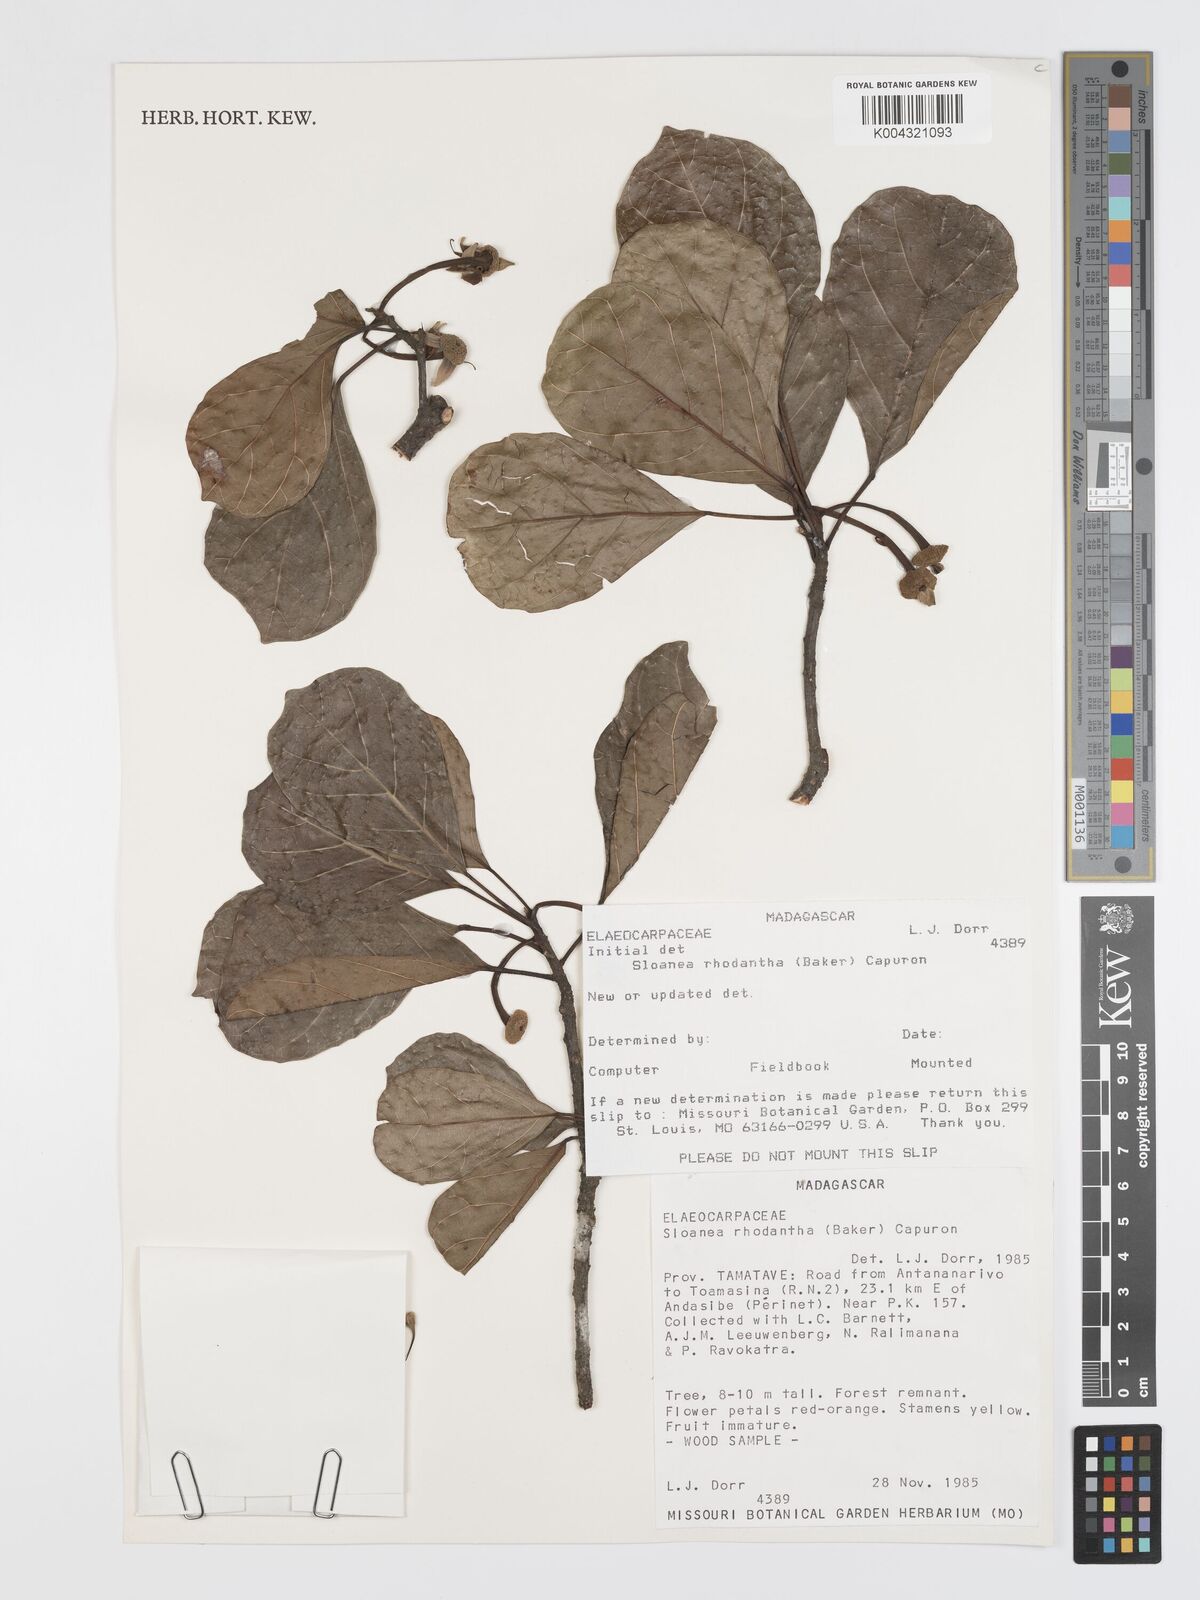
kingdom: Plantae
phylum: Tracheophyta
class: Magnoliopsida
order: Oxalidales
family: Elaeocarpaceae
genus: Sloanea
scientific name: Sloanea rhodantha
